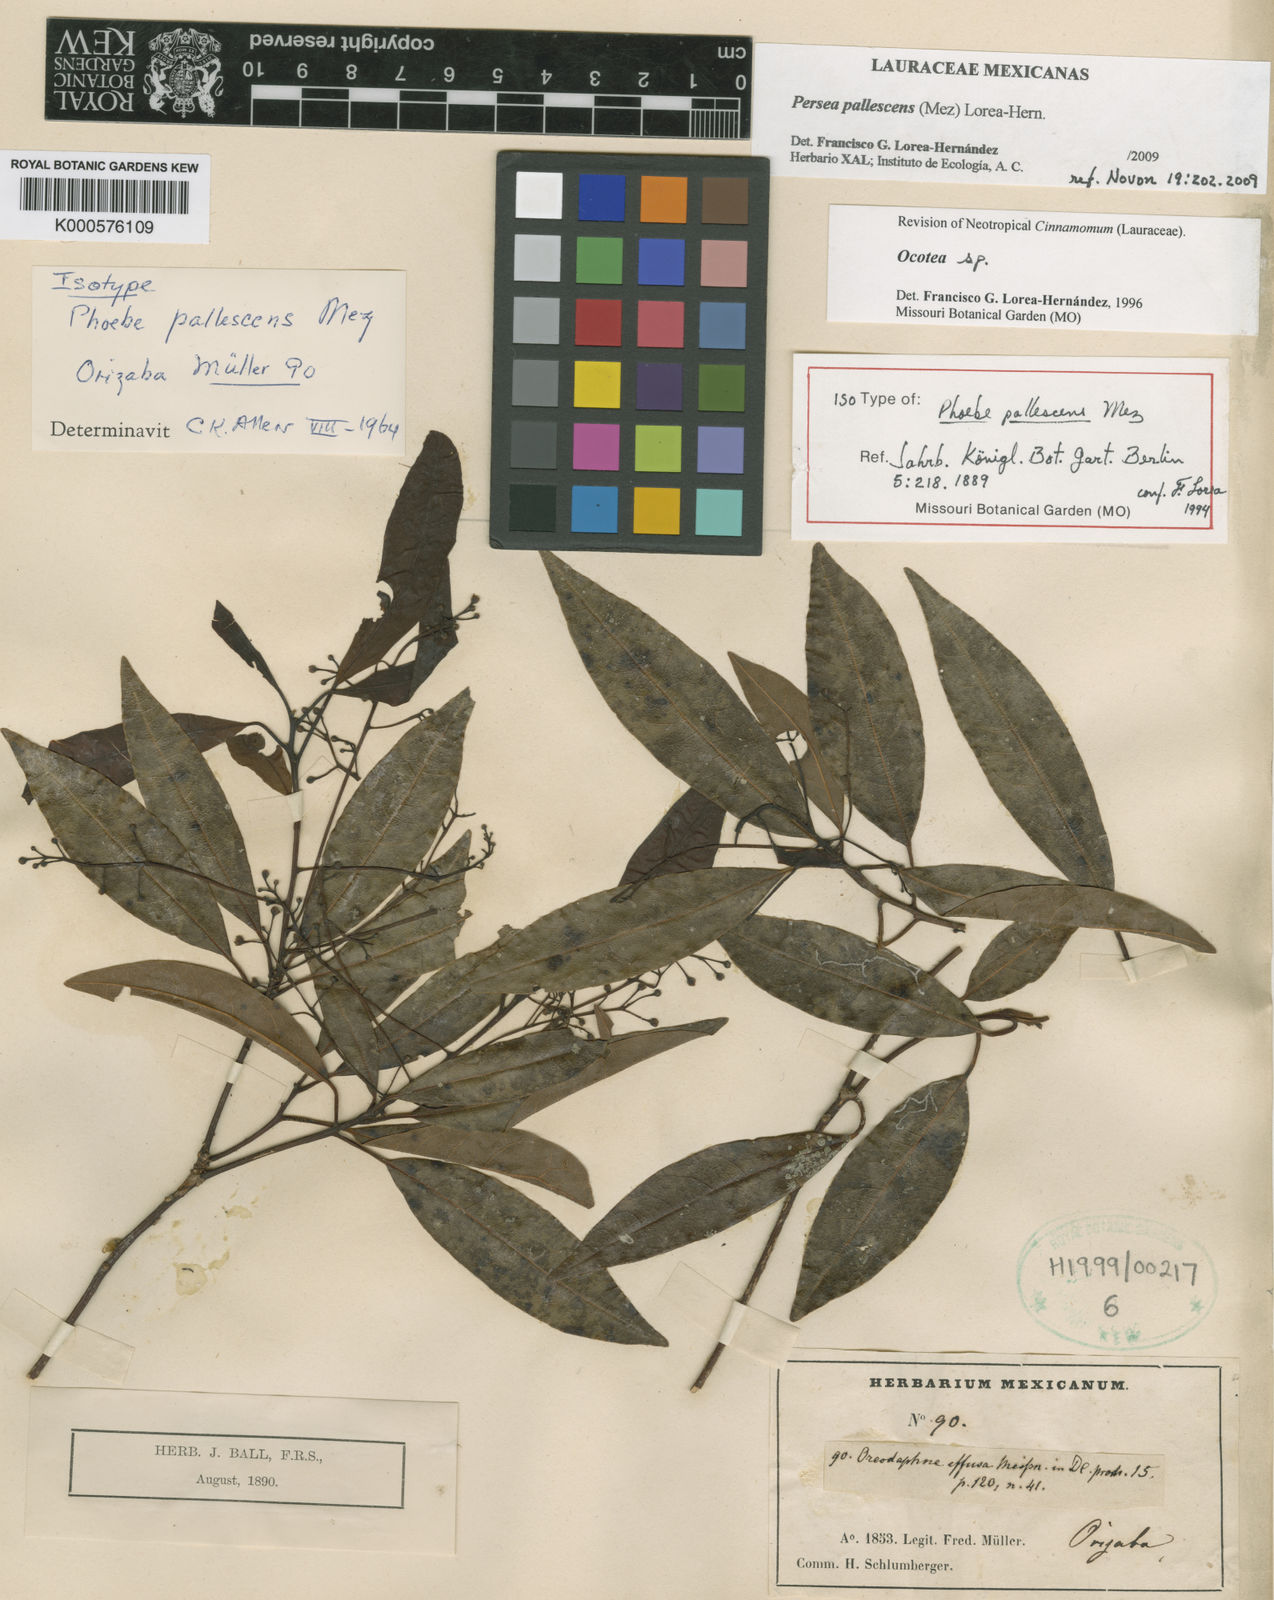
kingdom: Plantae
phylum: Tracheophyta
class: Magnoliopsida
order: Laurales
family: Lauraceae
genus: Persea
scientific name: Persea pallescens
